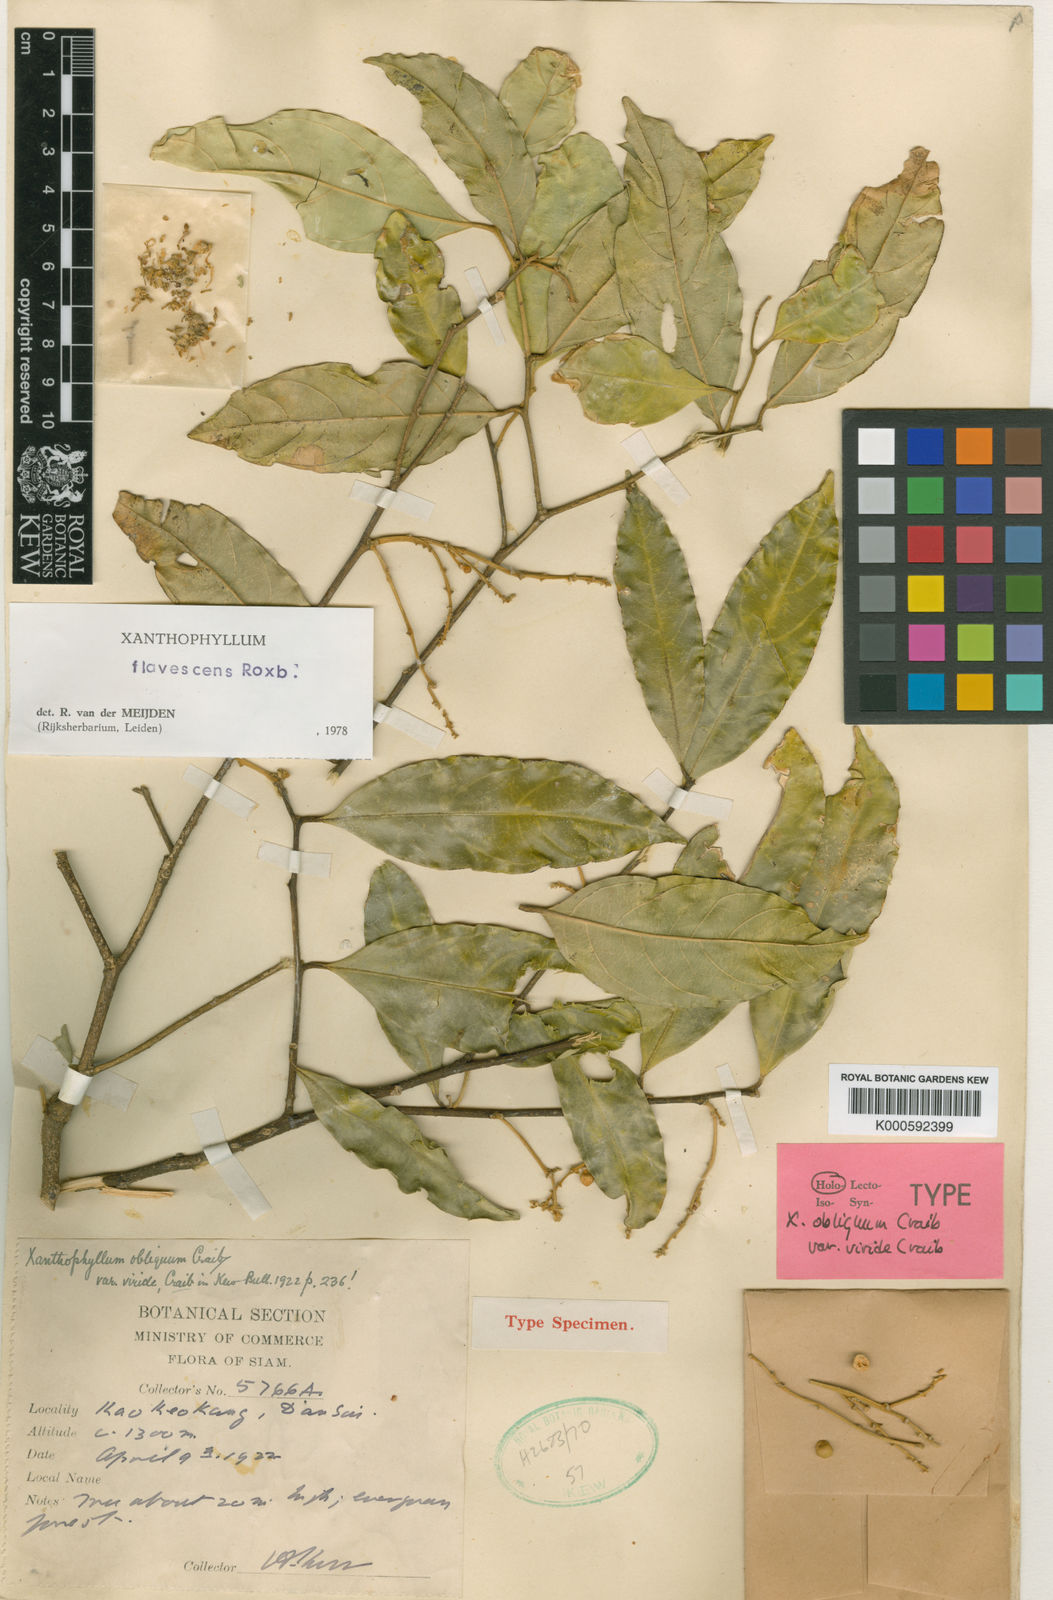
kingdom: Plantae
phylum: Tracheophyta
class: Magnoliopsida
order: Fabales
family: Polygalaceae
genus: Xanthophyllum
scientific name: Xanthophyllum flavescens
